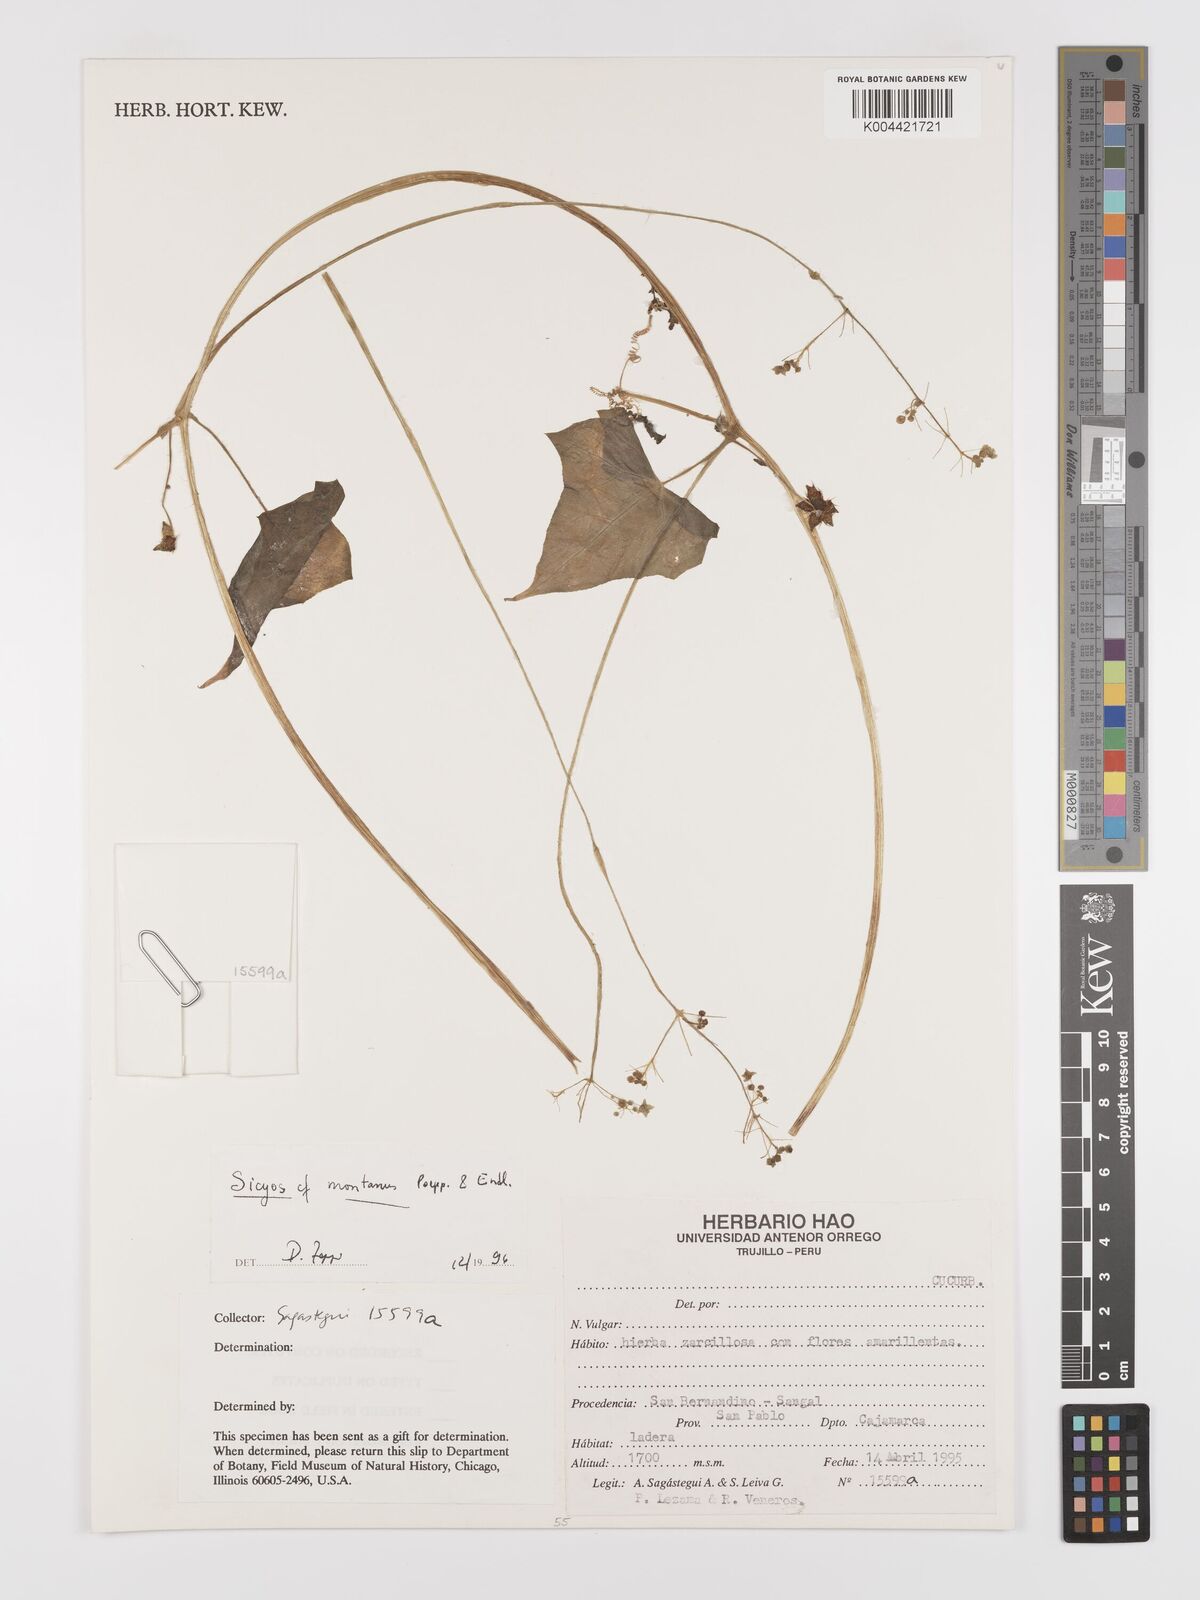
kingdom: Plantae
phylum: Tracheophyta
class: Magnoliopsida
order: Cucurbitales
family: Cucurbitaceae
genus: Sicyos
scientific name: Sicyos
